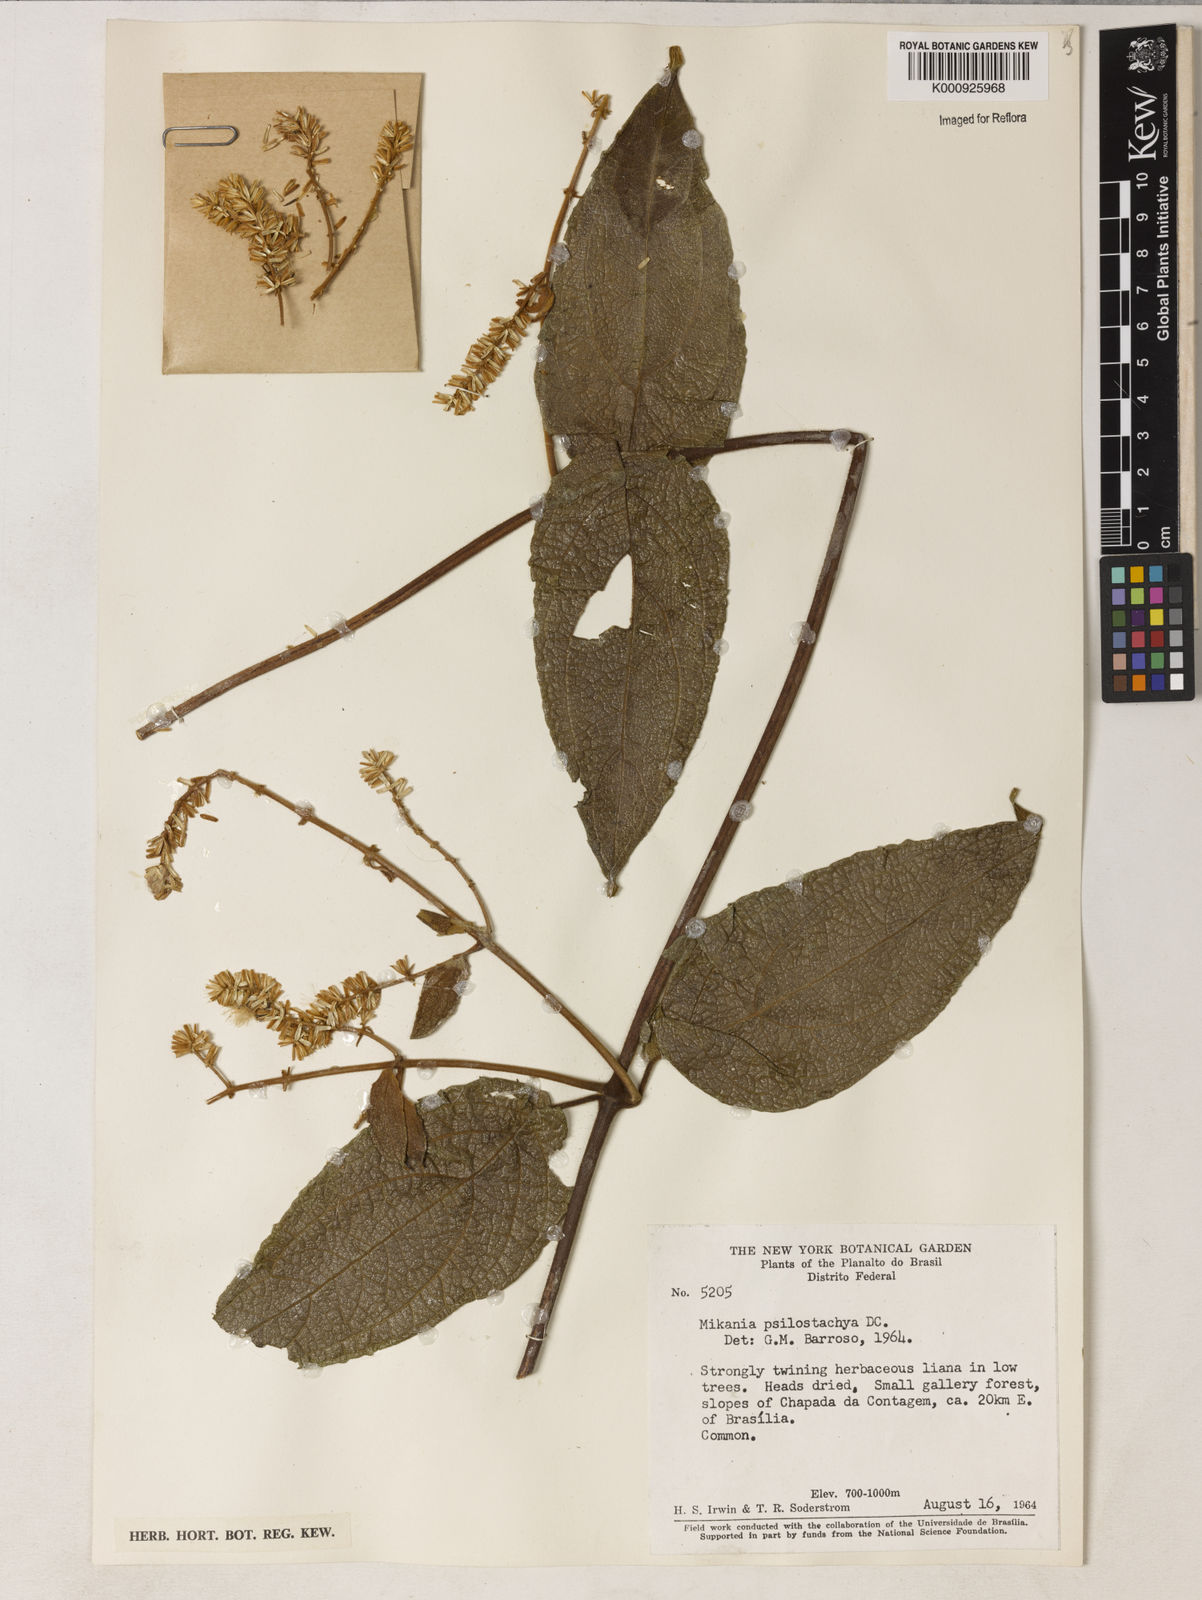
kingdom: Plantae
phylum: Tracheophyta
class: Magnoliopsida
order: Asterales
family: Asteraceae
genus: Mikania
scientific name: Mikania psilostachya
